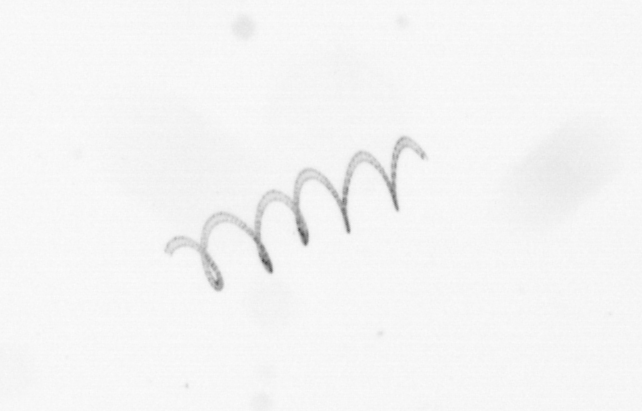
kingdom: Chromista
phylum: Ochrophyta
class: Bacillariophyceae
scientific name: Bacillariophyceae
